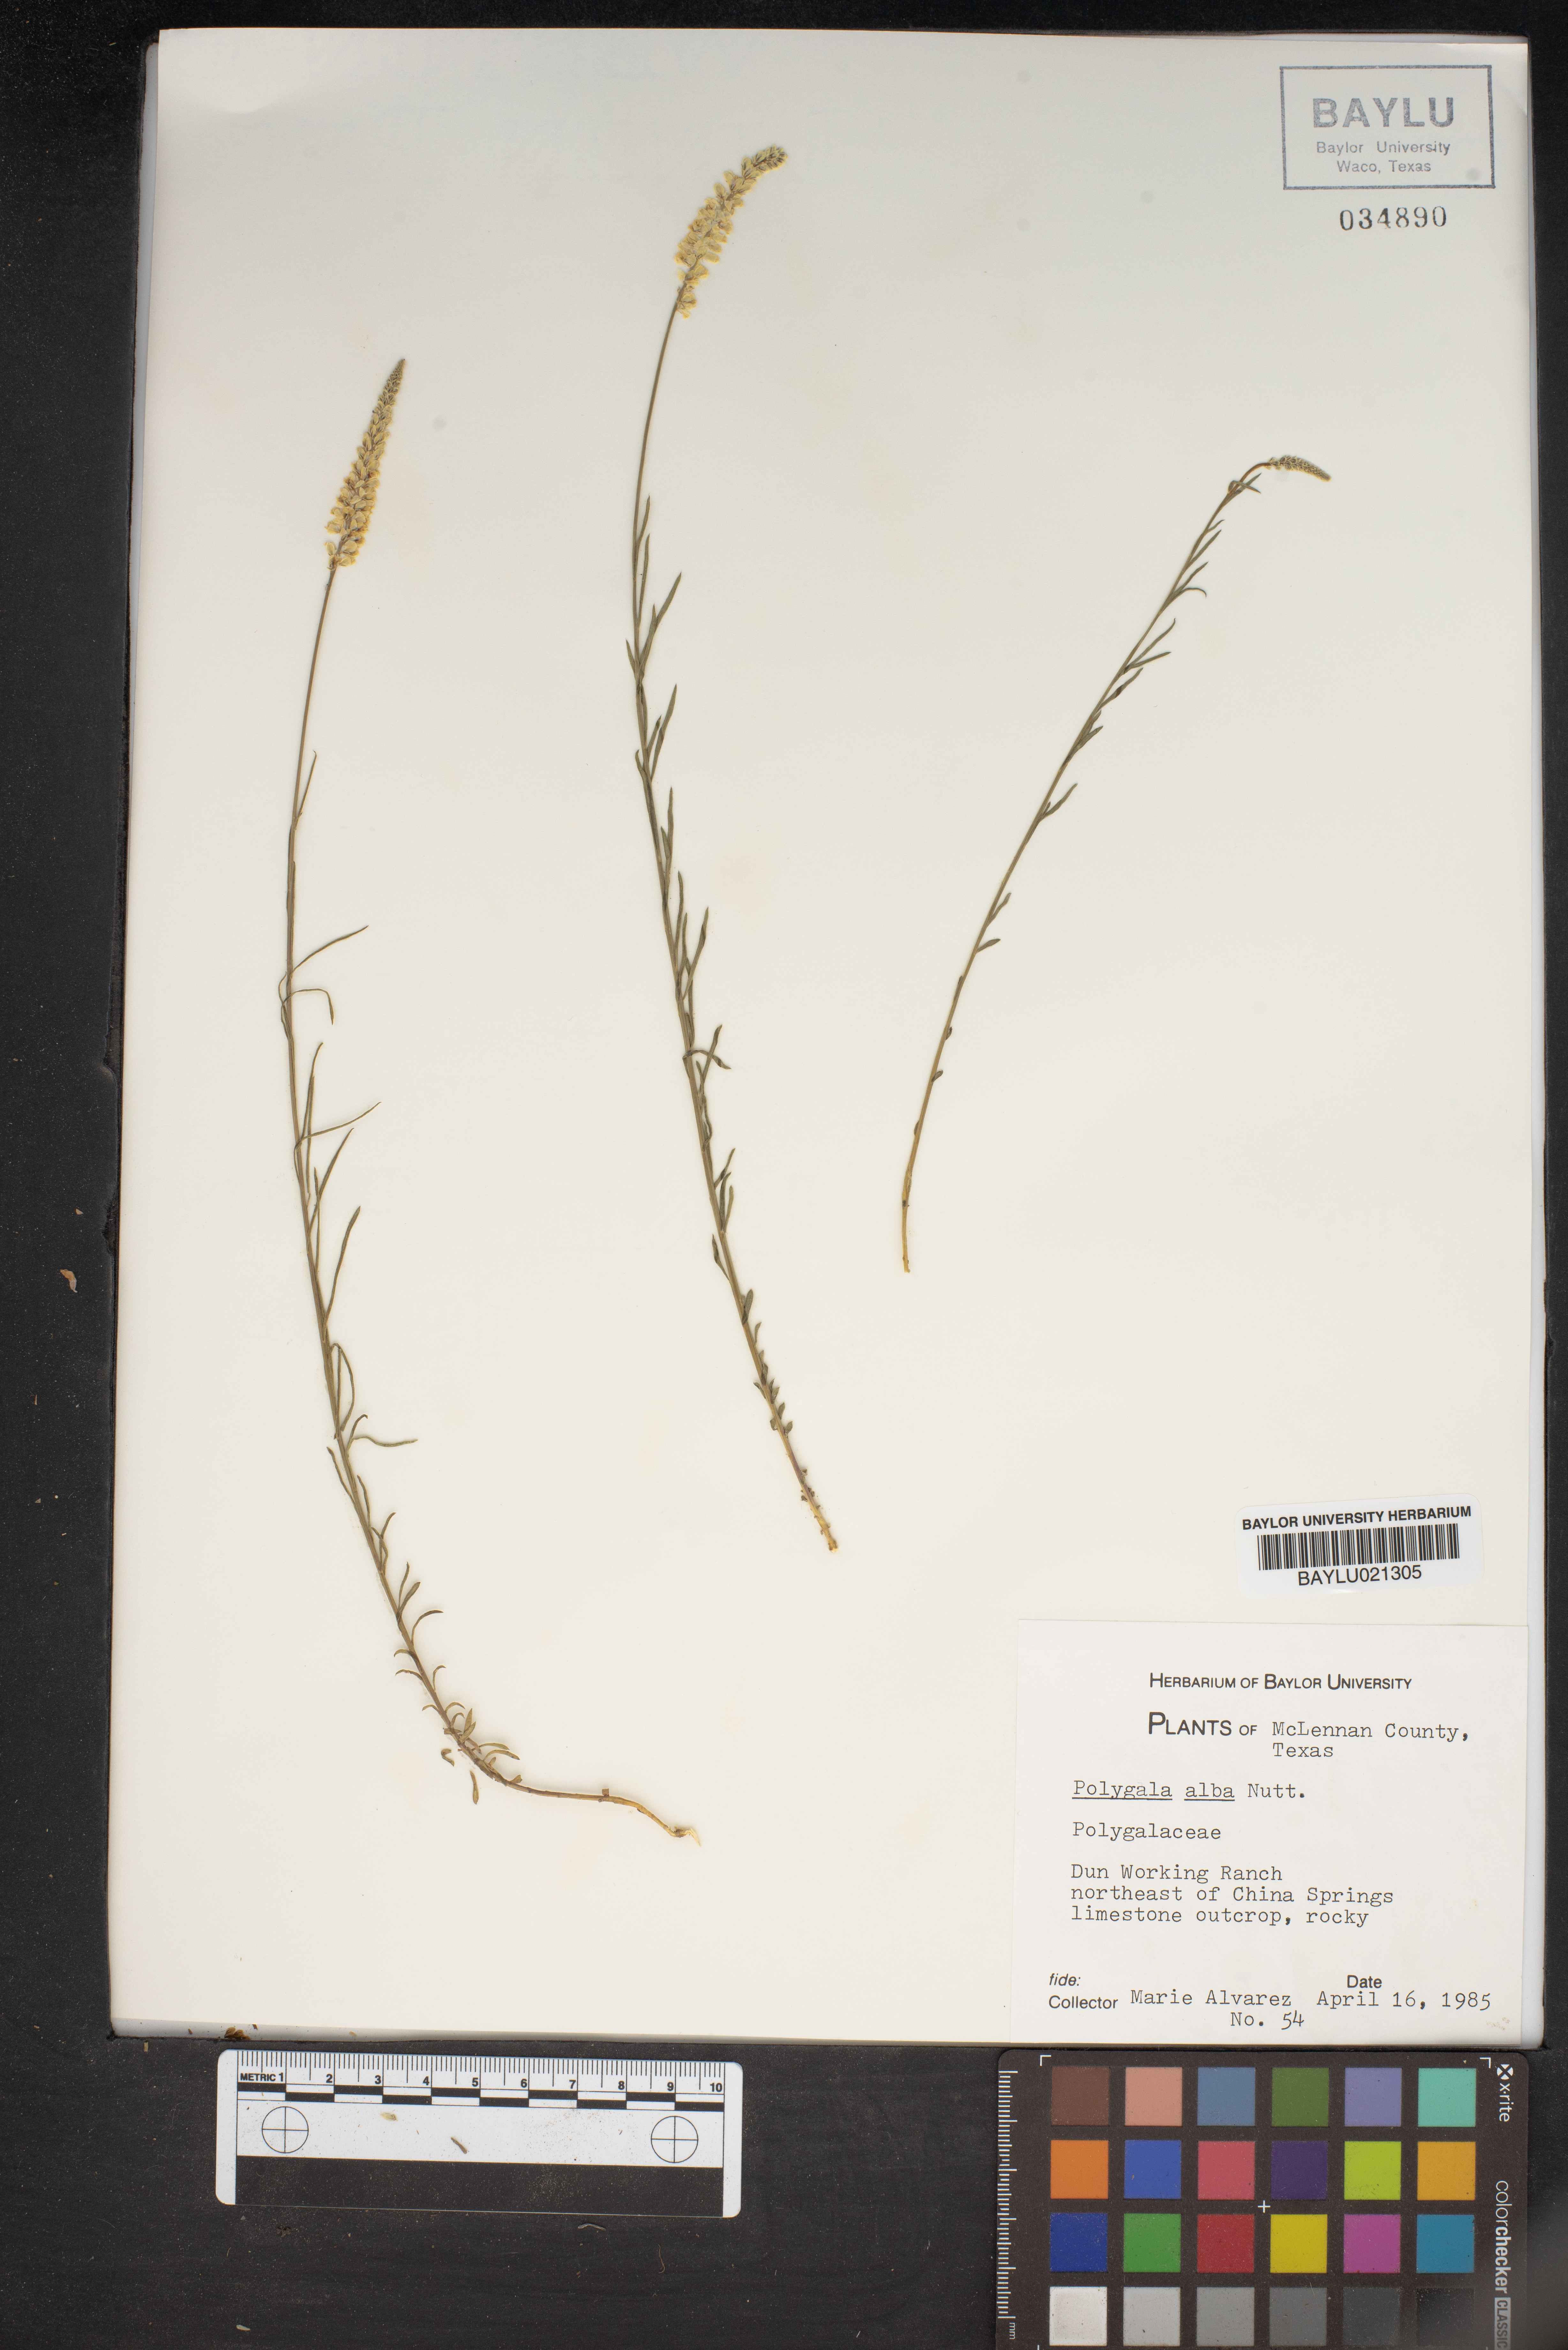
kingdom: Plantae
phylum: Tracheophyta
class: Magnoliopsida
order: Fabales
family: Polygalaceae
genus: Polygala
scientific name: Polygala alba
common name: White milkwort
